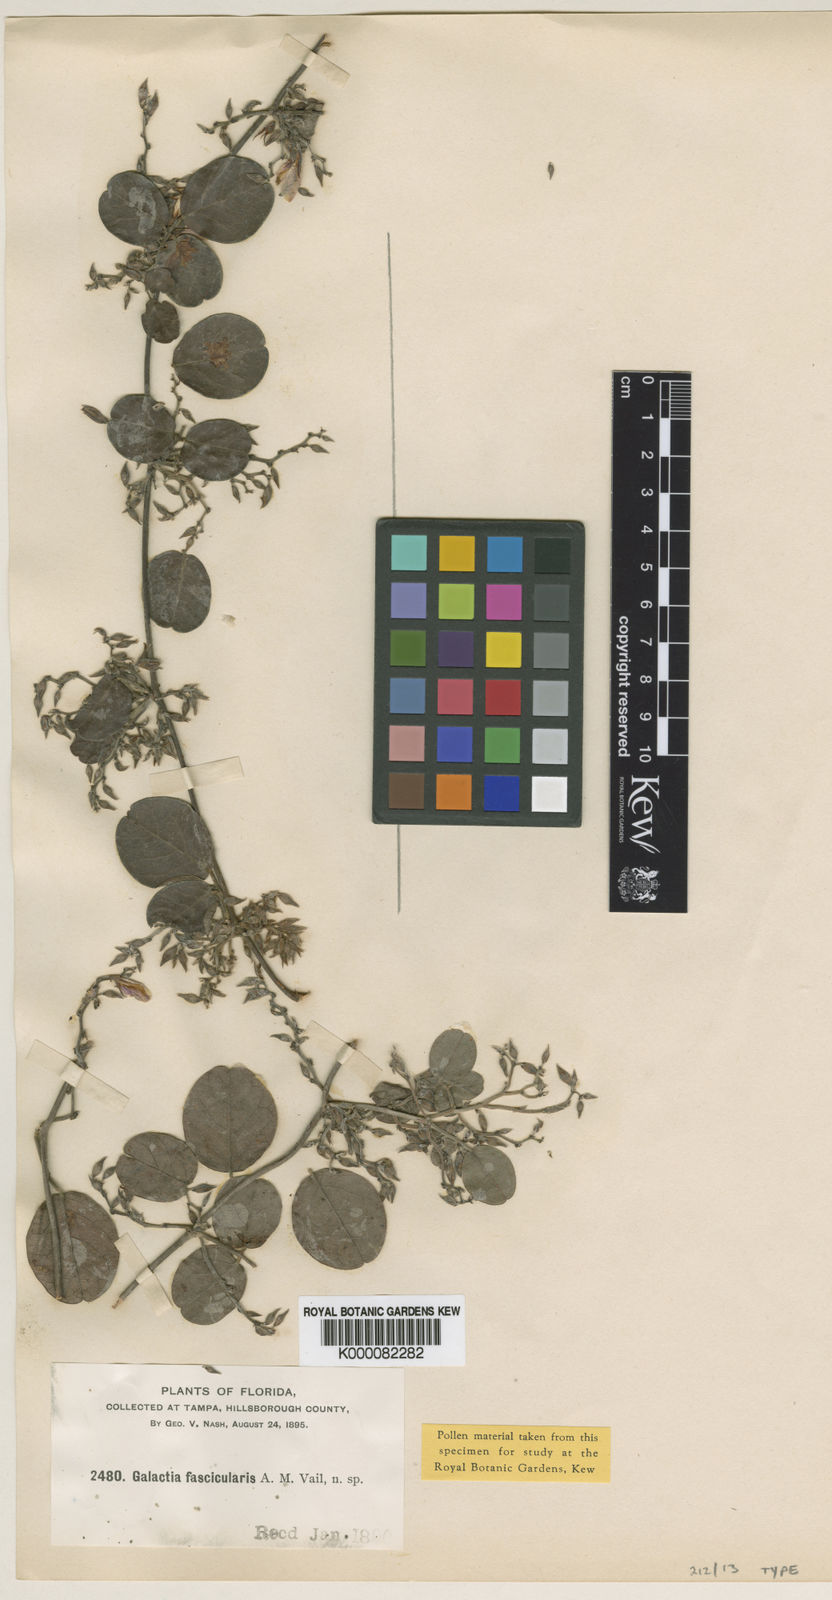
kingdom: Plantae
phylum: Tracheophyta
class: Magnoliopsida
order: Fabales
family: Fabaceae
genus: Galactia
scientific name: Galactia
